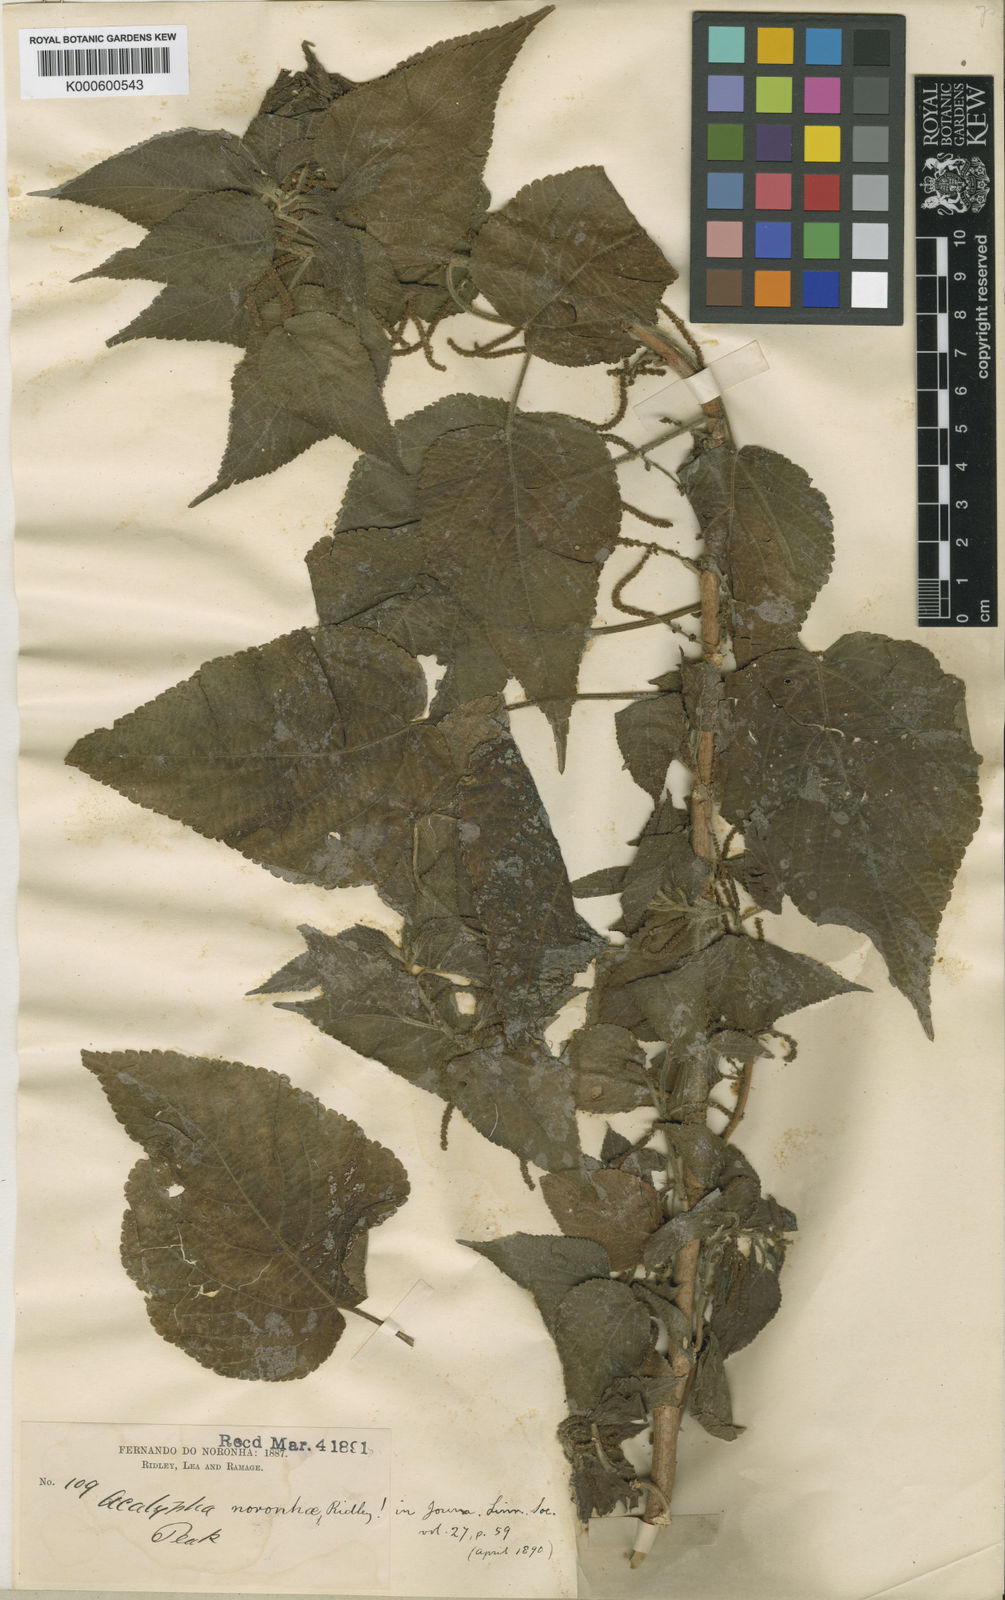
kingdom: Plantae
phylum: Tracheophyta
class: Magnoliopsida
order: Malpighiales
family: Euphorbiaceae
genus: Acalypha
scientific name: Acalypha noronhae
